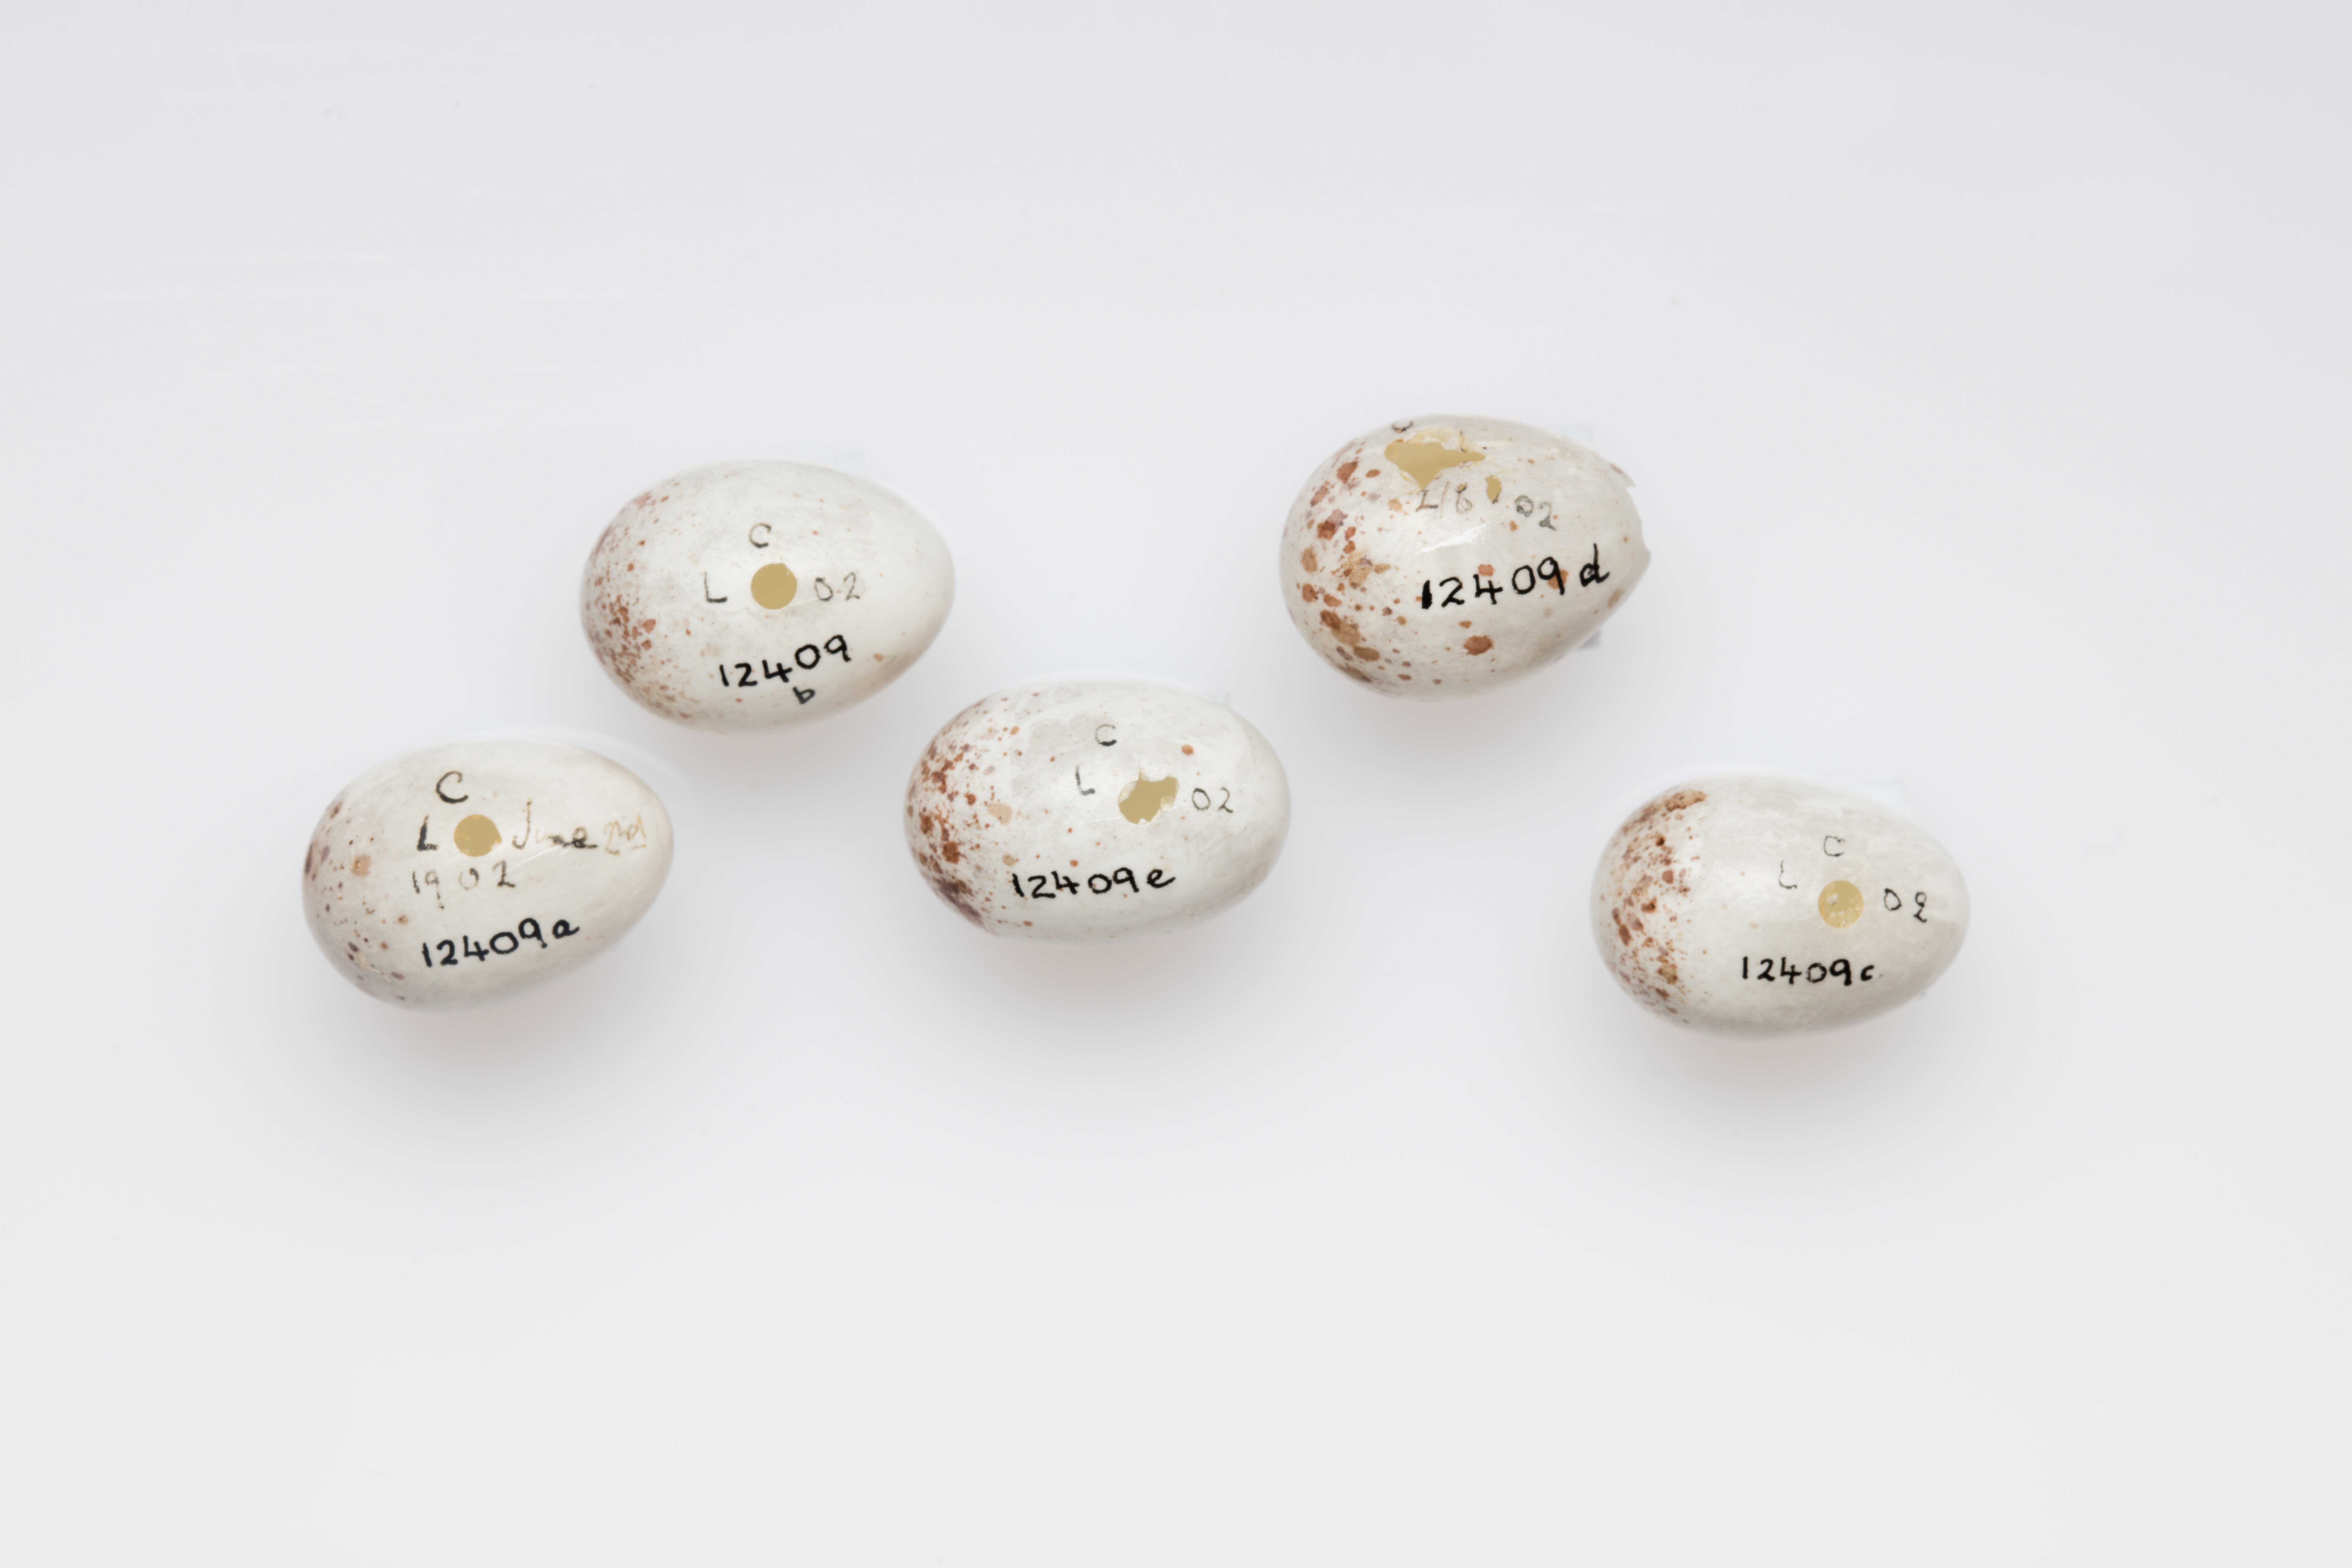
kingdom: Animalia
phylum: Chordata
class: Aves
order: Passeriformes
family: Certhiidae
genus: Certhia
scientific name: Certhia familiaris
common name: Eurasian treecreeper
